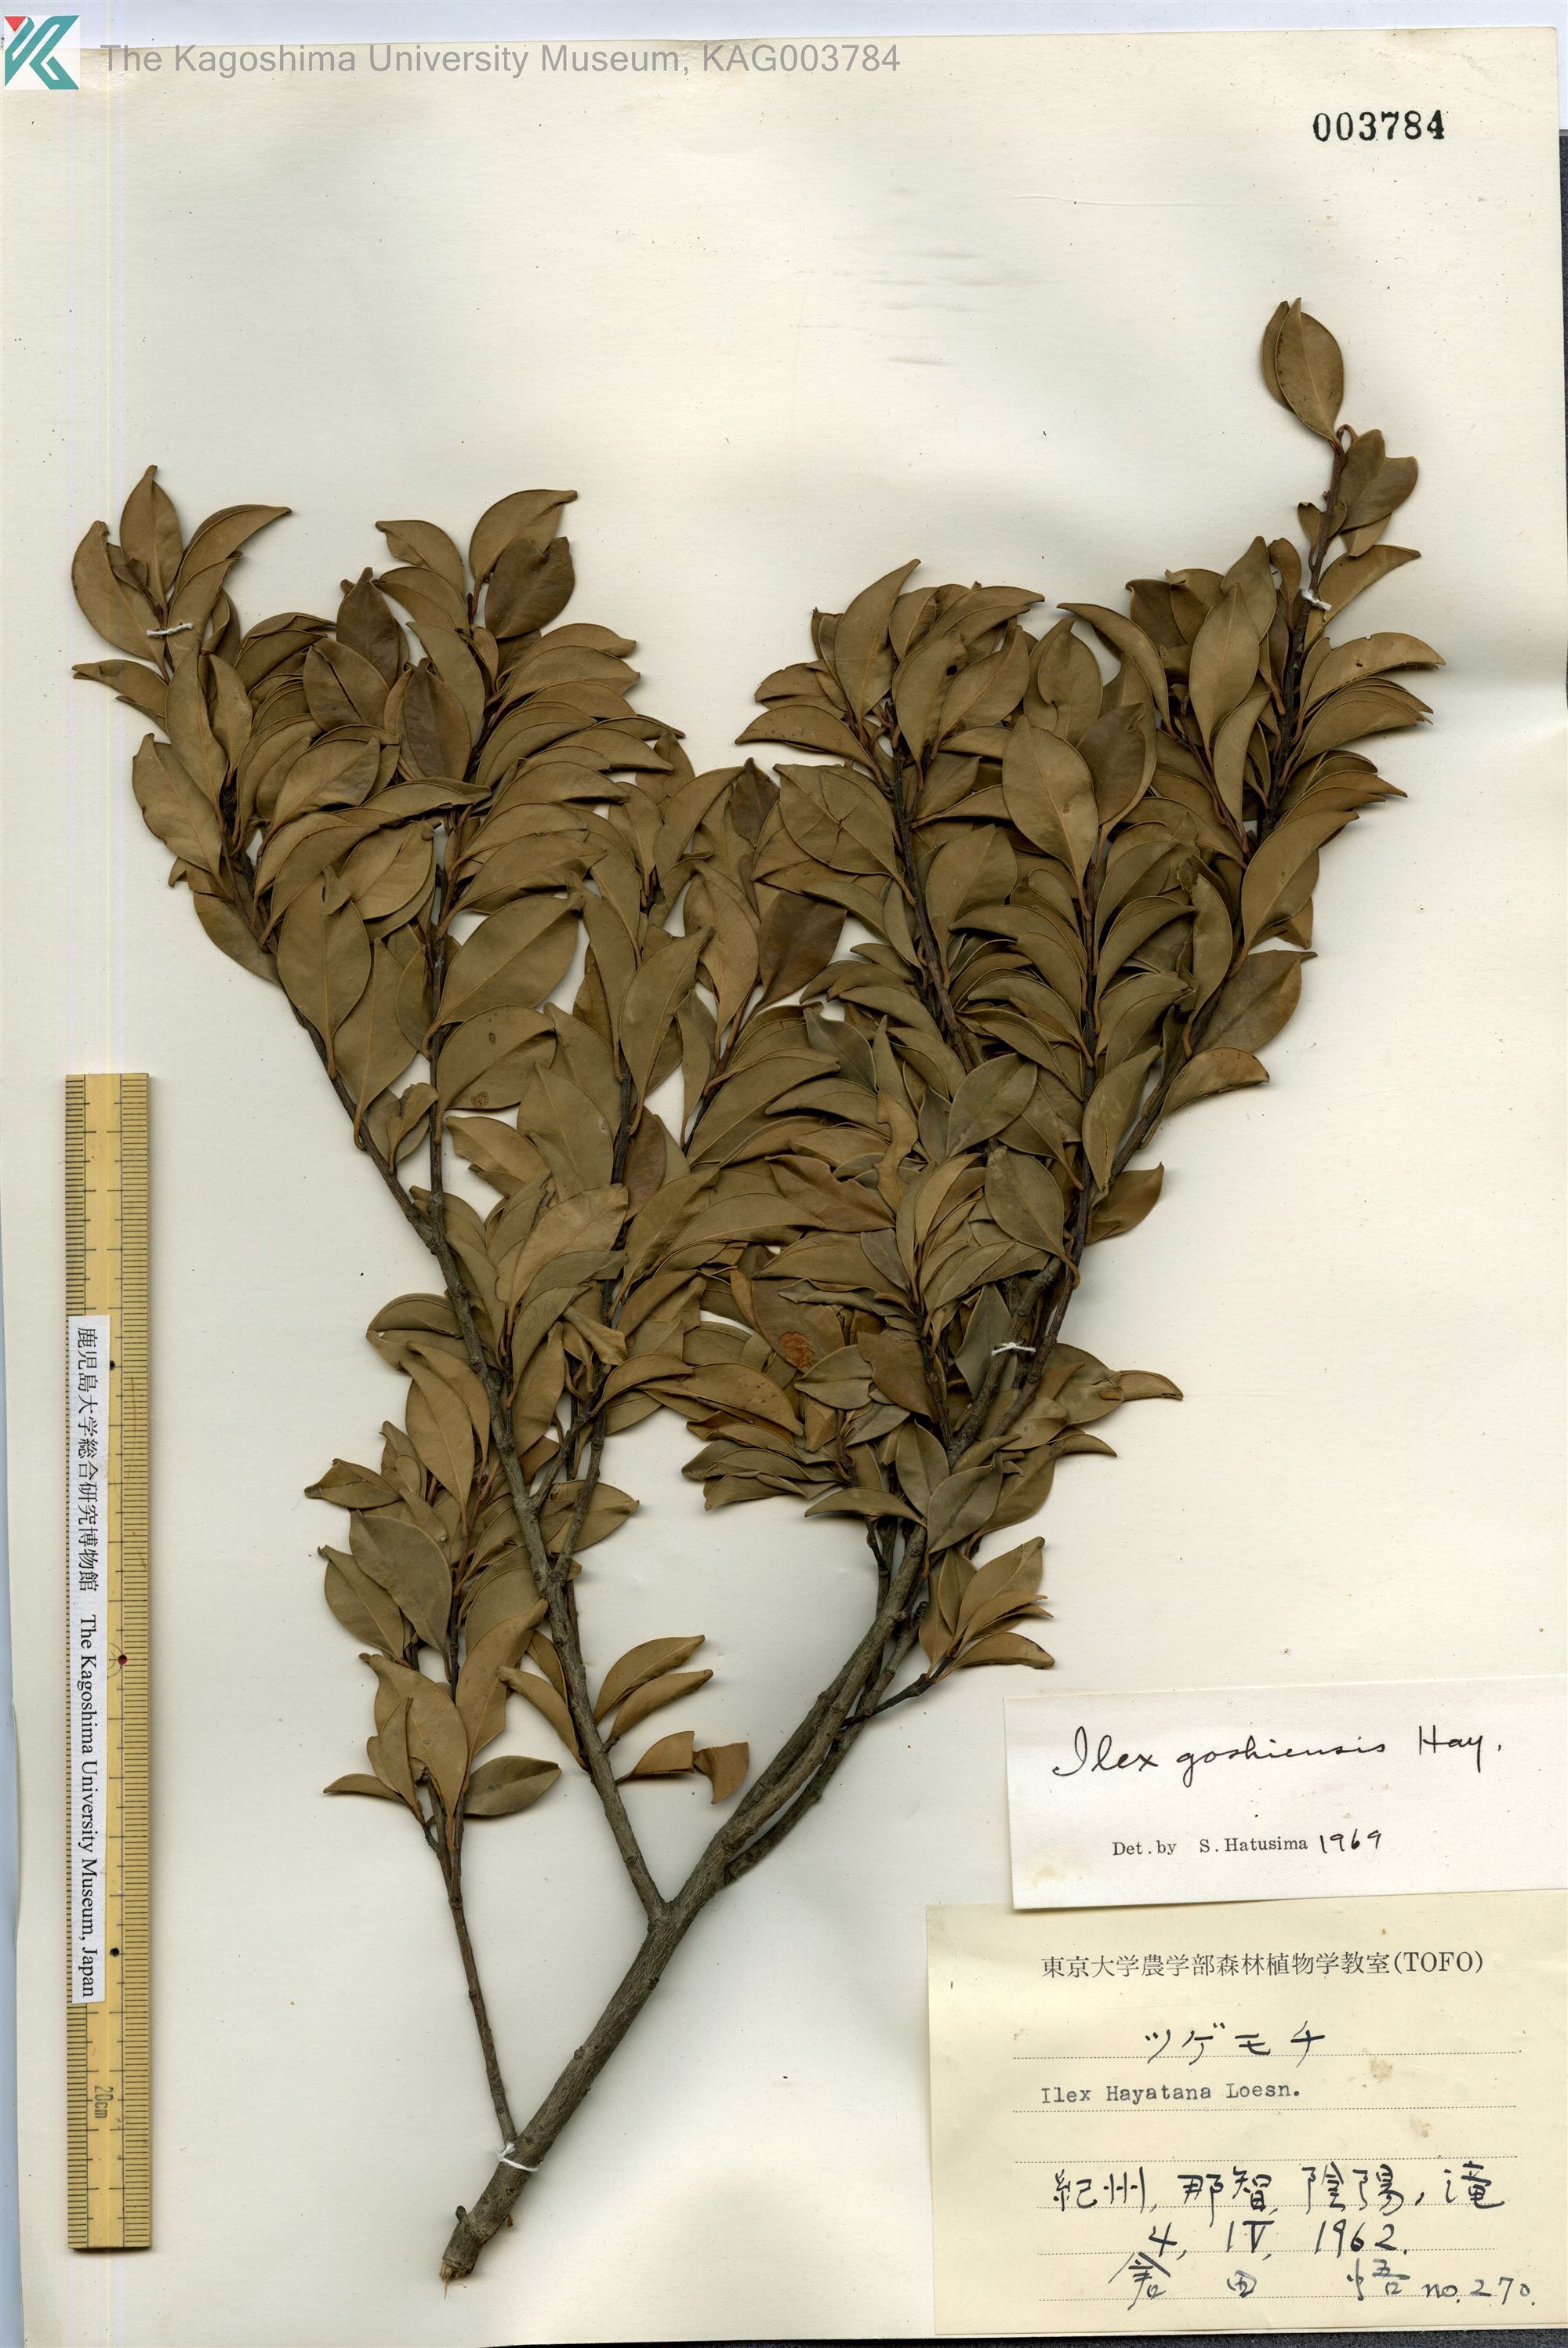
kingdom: Plantae
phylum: Tracheophyta
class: Magnoliopsida
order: Aquifoliales
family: Aquifoliaceae
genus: Ilex
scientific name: Ilex goshiensis
